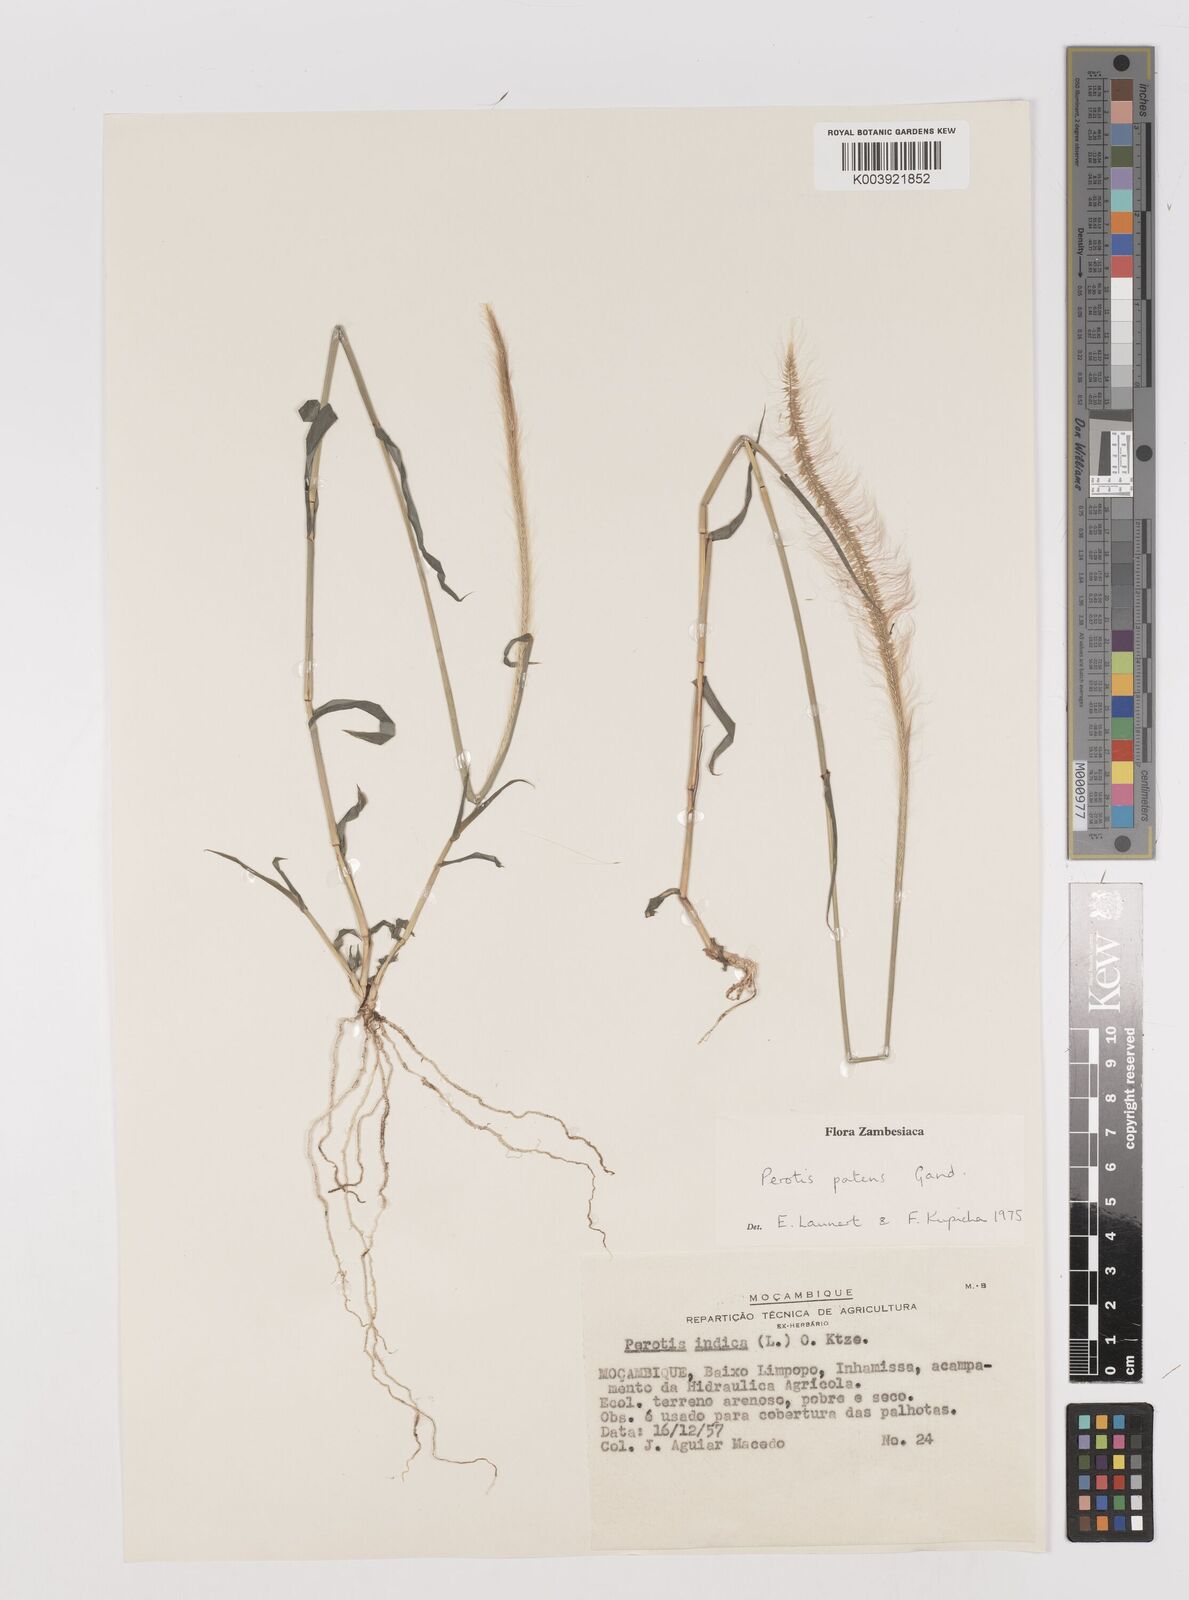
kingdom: Plantae
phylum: Tracheophyta
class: Liliopsida
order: Poales
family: Poaceae
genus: Perotis
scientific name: Perotis patens
